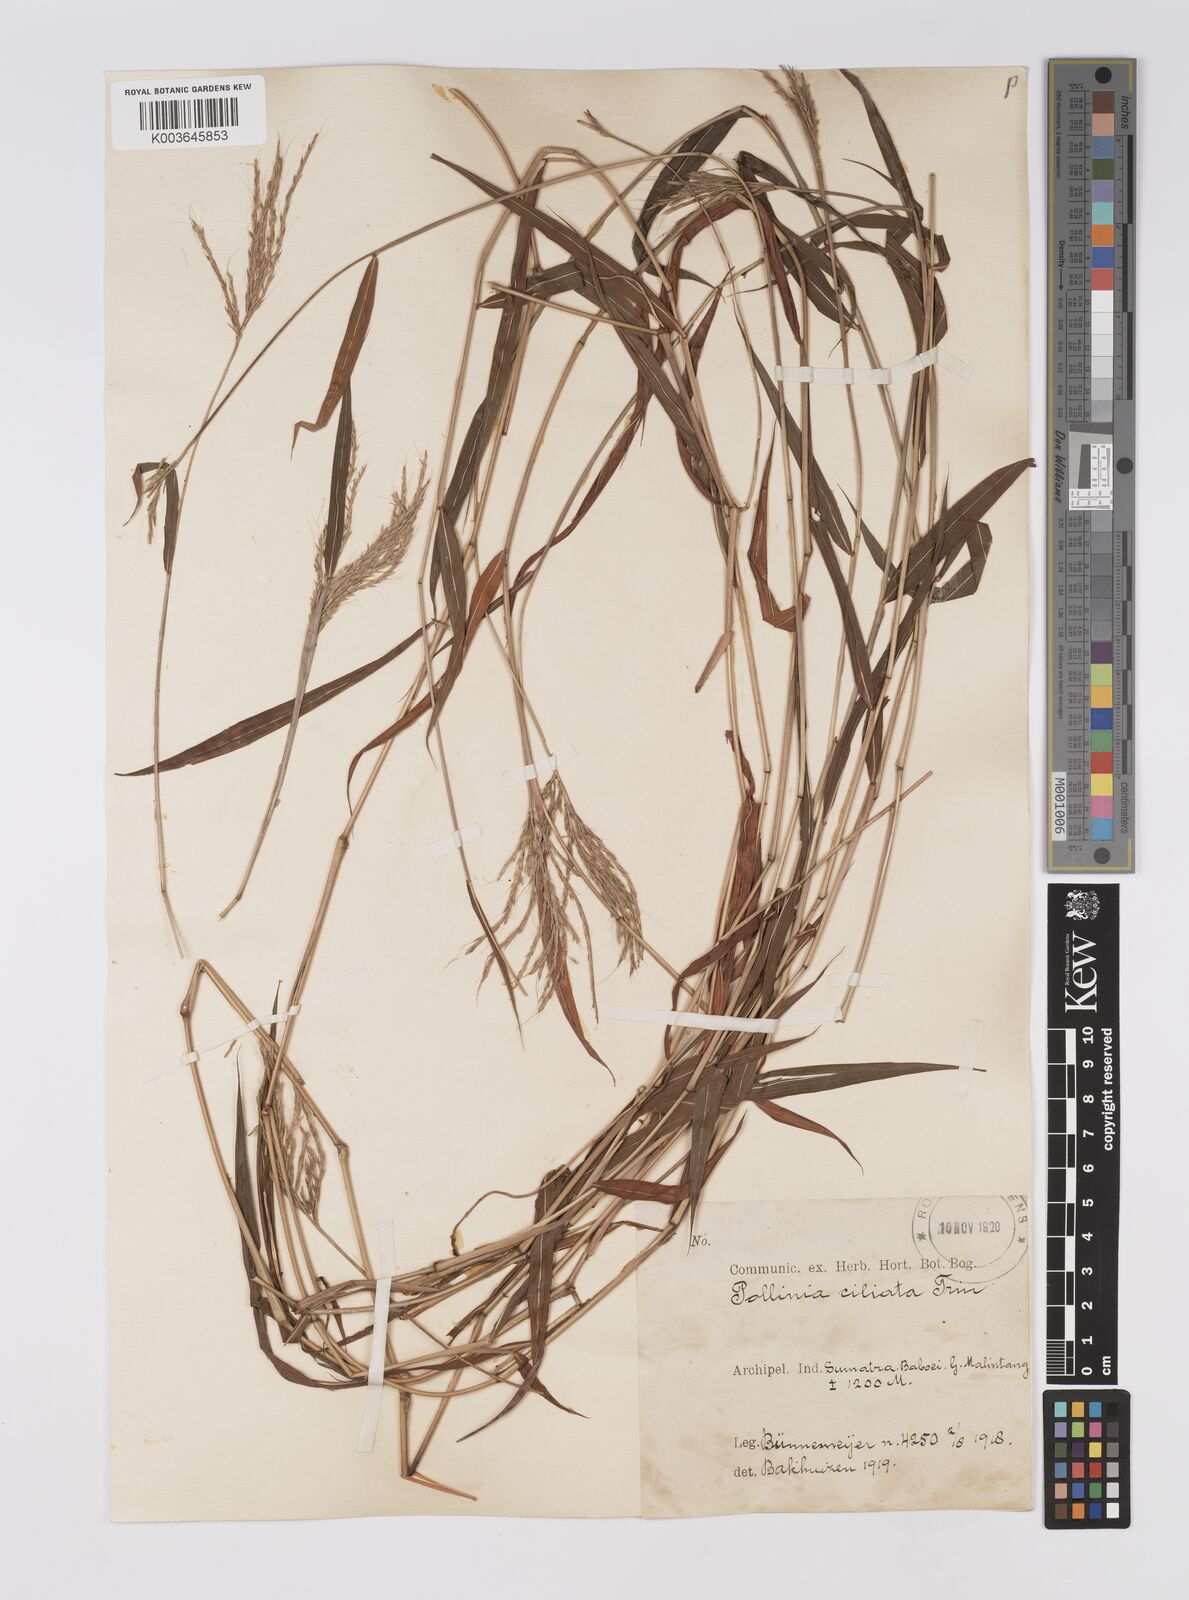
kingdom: Plantae
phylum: Tracheophyta
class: Liliopsida
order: Poales
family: Poaceae
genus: Microstegium
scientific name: Microstegium fasciculatum
